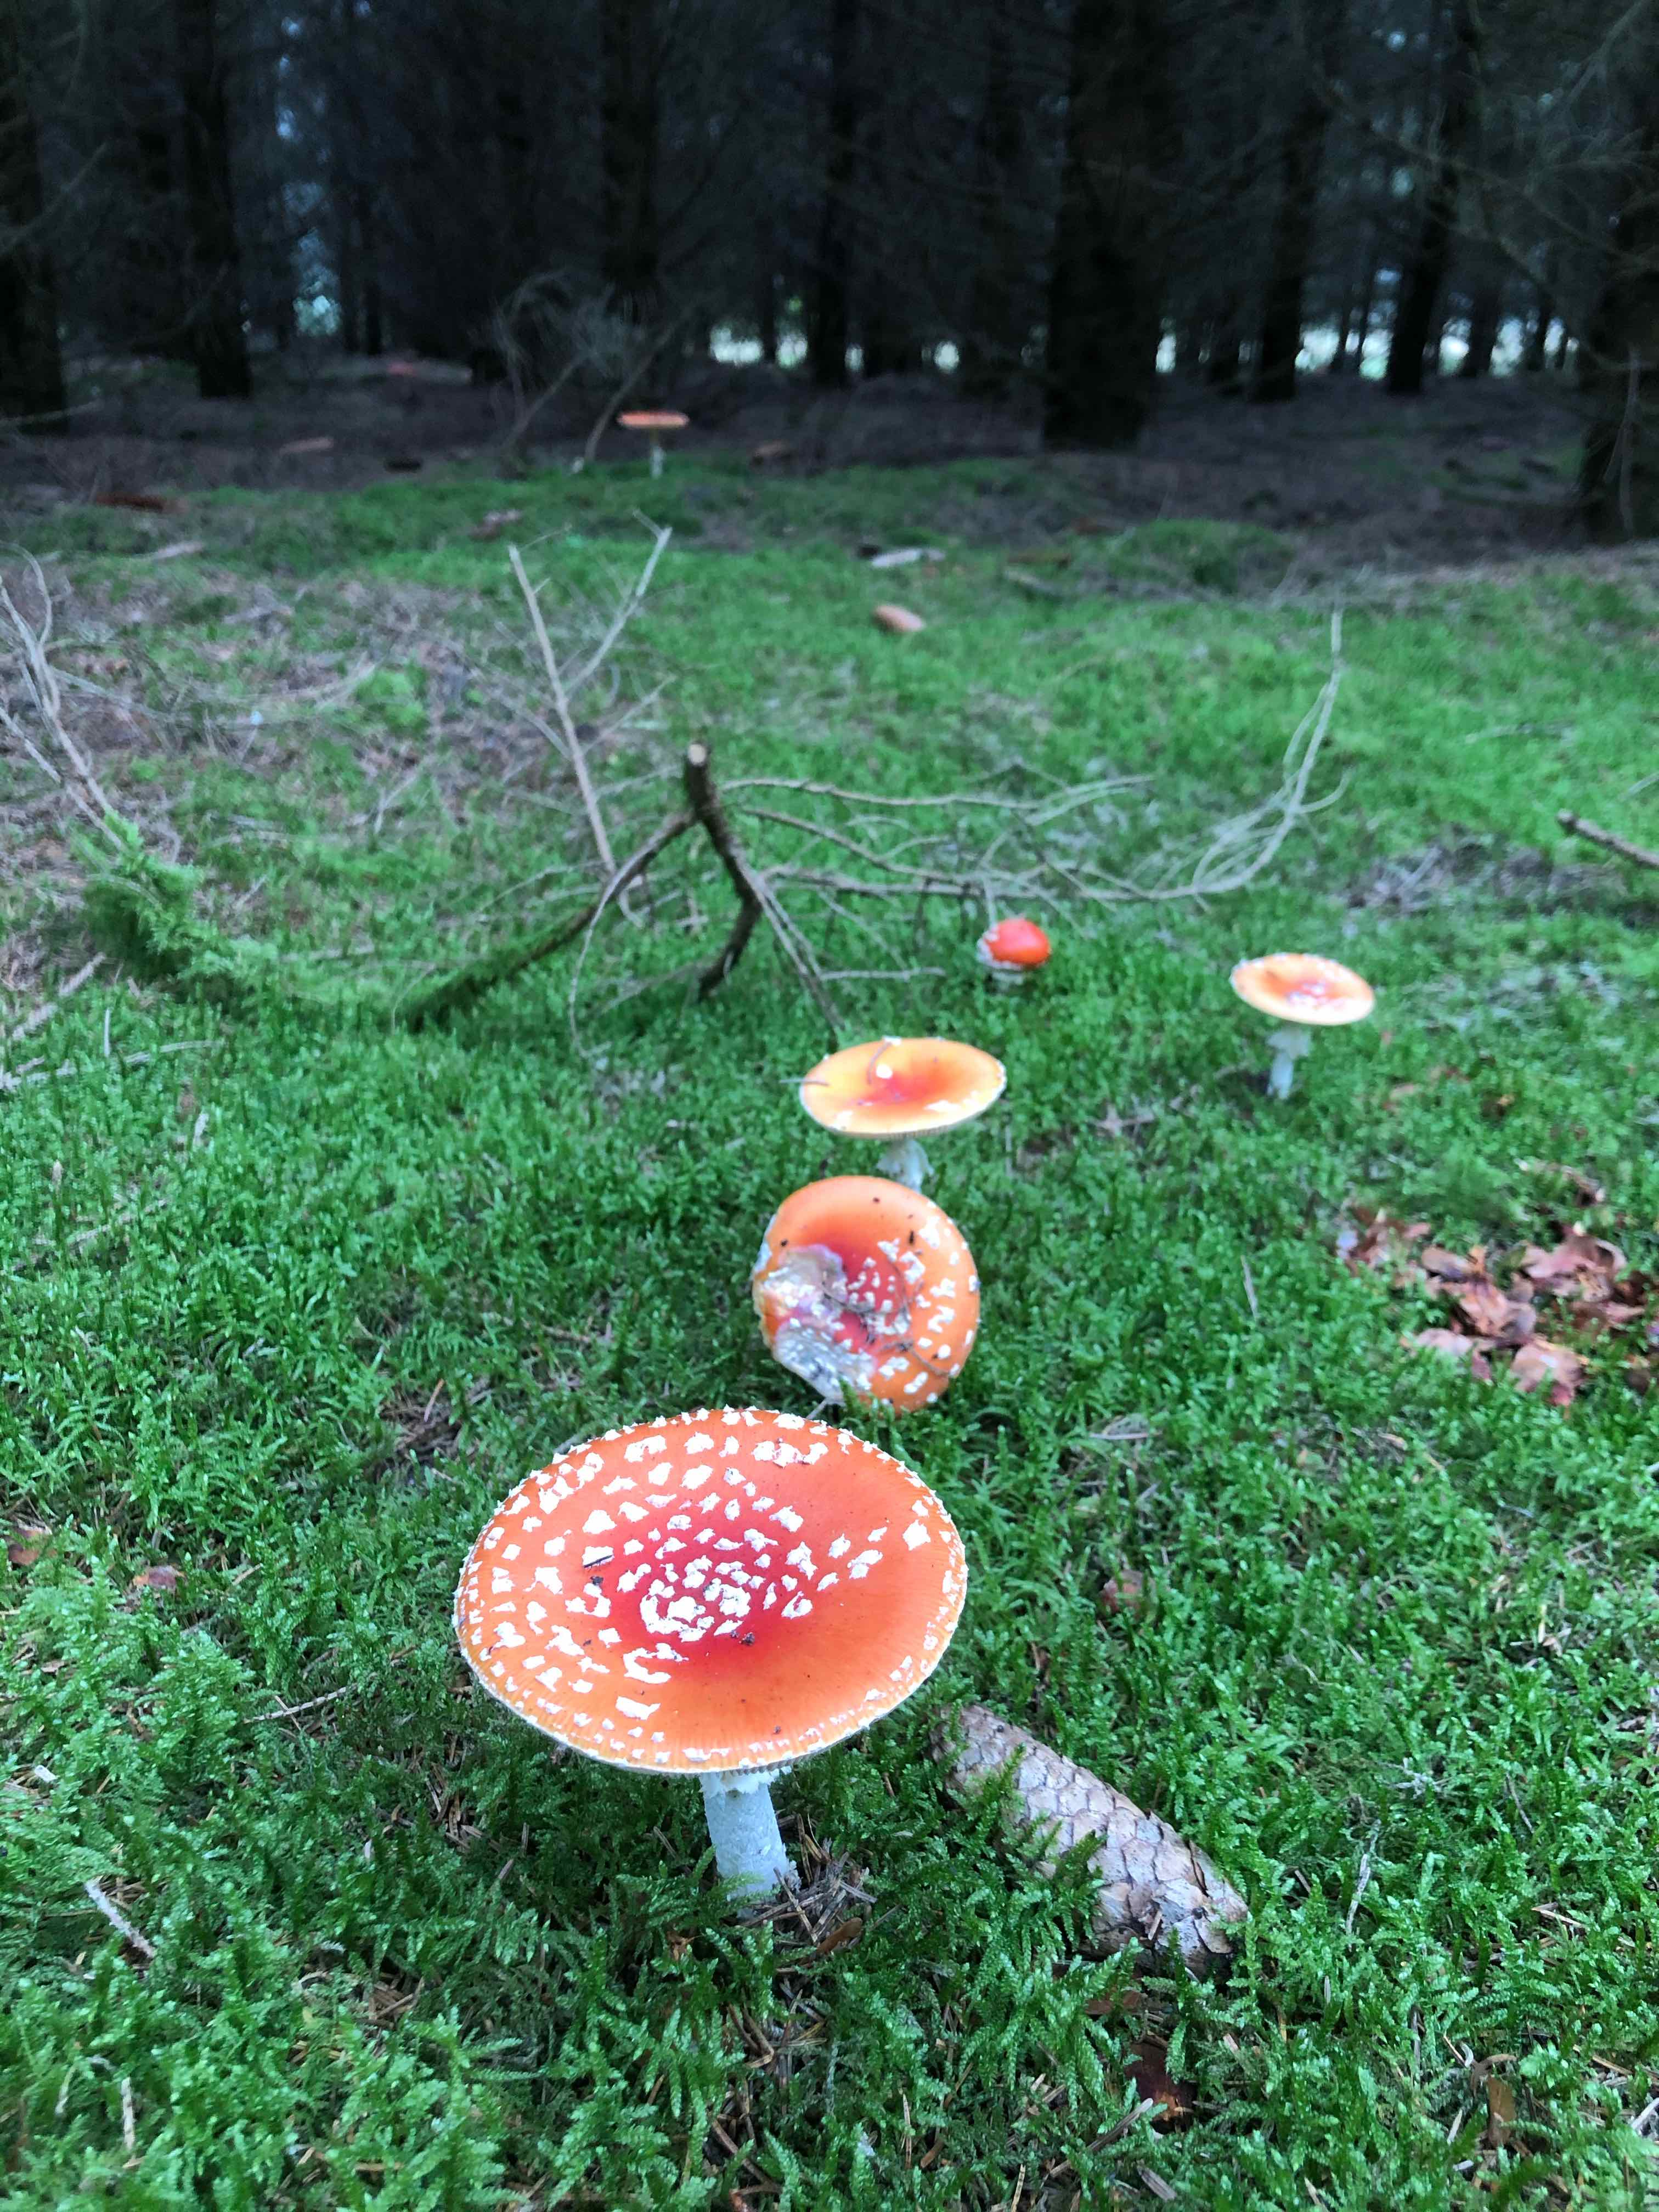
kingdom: Fungi
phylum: Basidiomycota
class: Agaricomycetes
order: Agaricales
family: Amanitaceae
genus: Amanita
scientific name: Amanita muscaria
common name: rød fluesvamp
